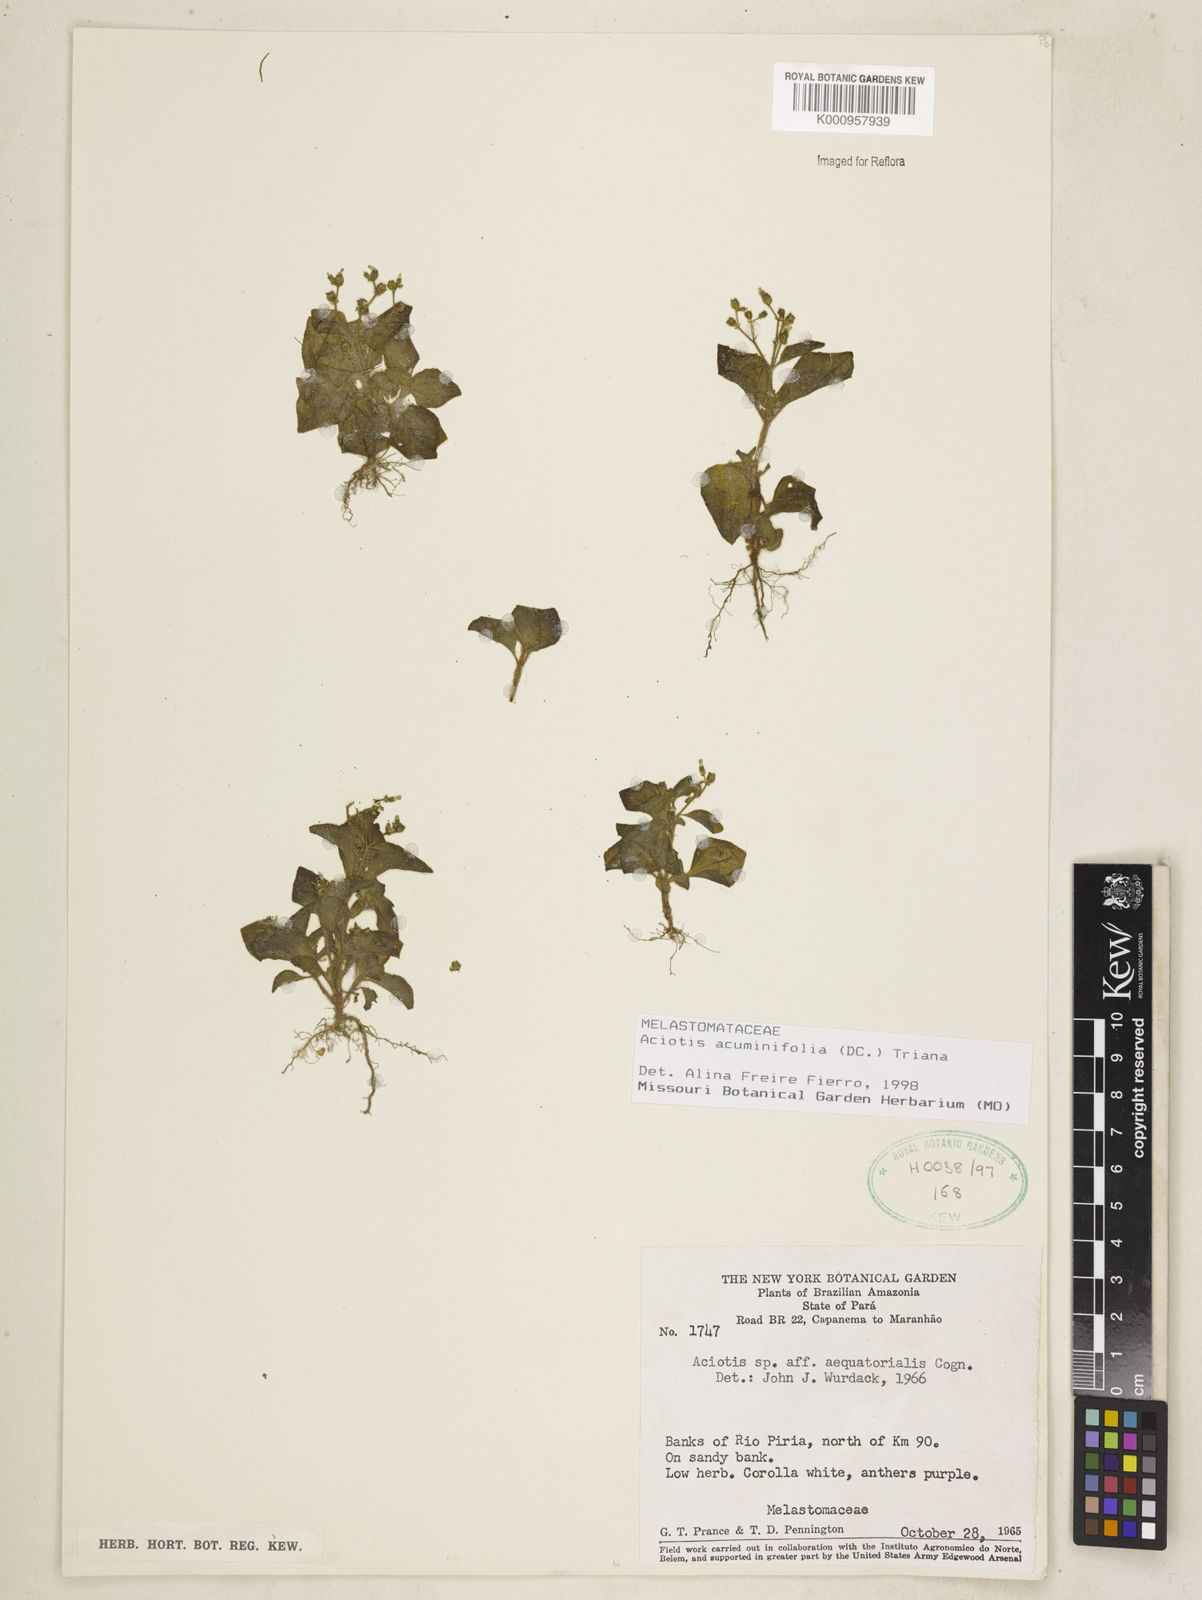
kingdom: Plantae
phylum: Tracheophyta
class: Magnoliopsida
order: Myrtales
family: Melastomataceae
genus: Aciotis
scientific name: Aciotis acuminifolia
